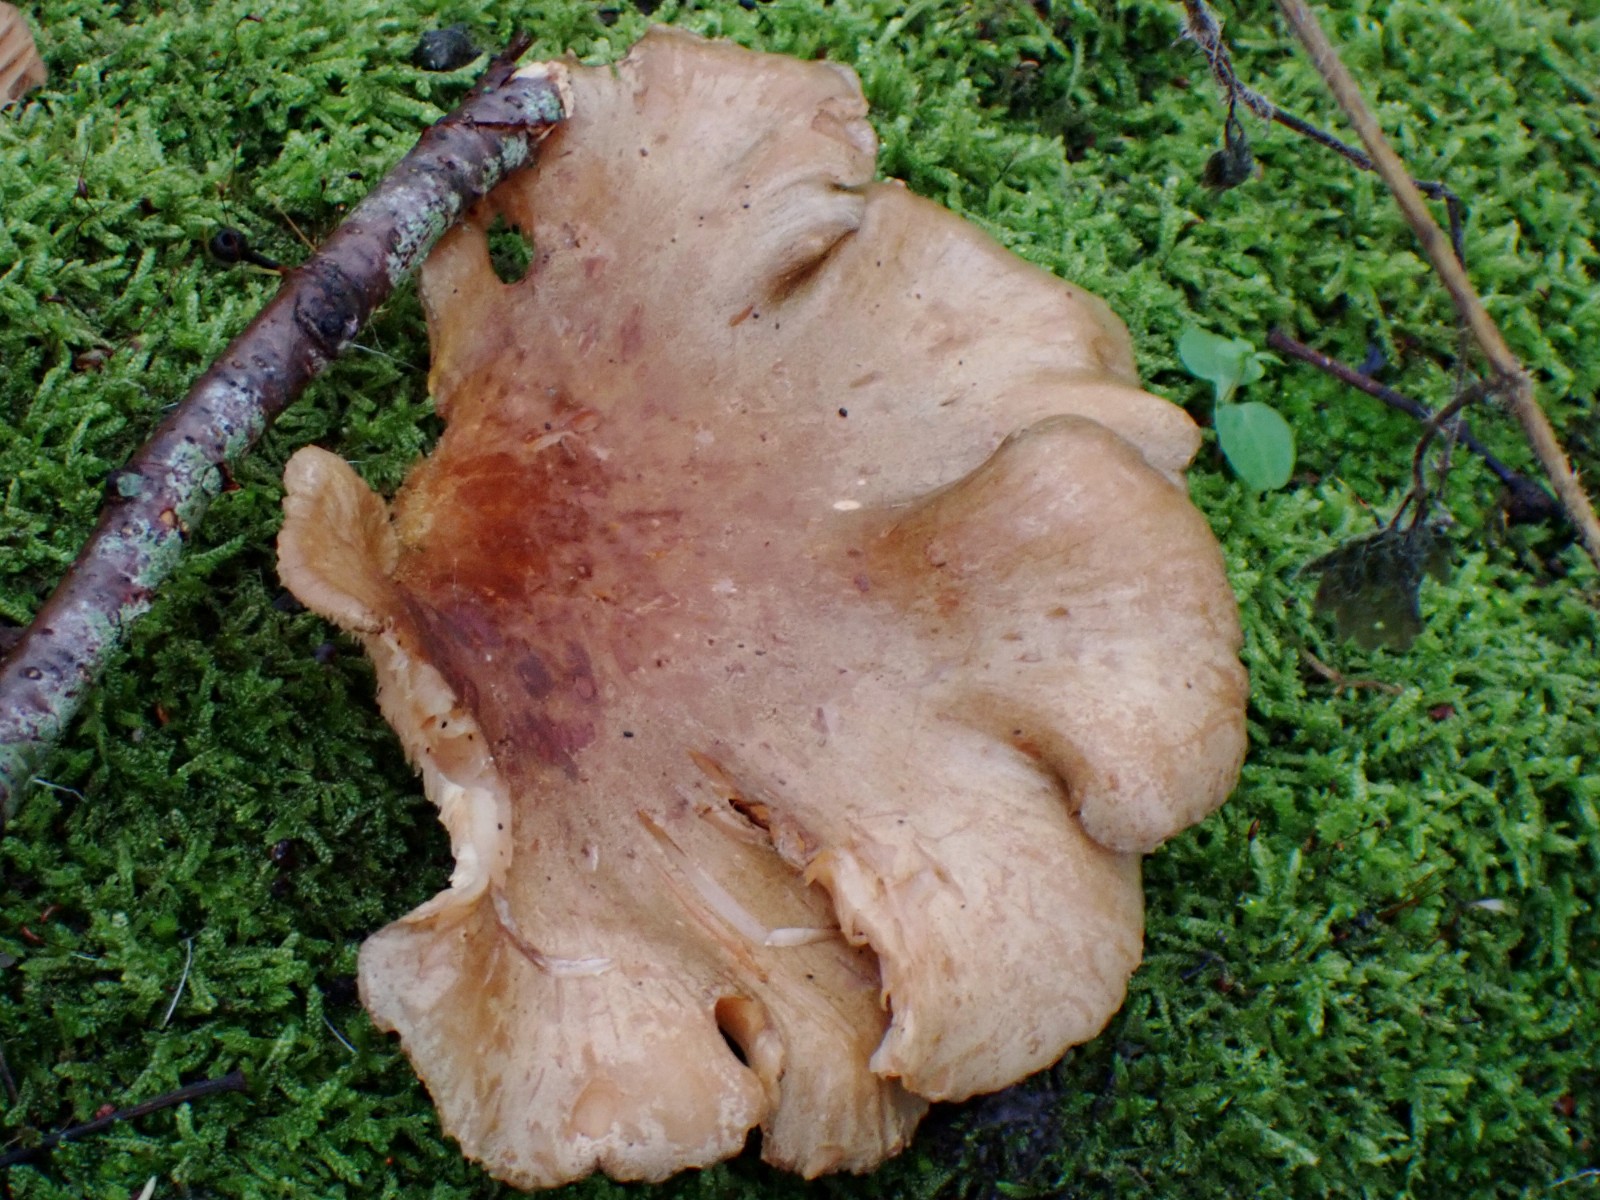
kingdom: Fungi
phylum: Basidiomycota
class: Agaricomycetes
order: Agaricales
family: Sarcomyxaceae
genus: Sarcomyxa
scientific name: Sarcomyxa serotina
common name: gummihat
